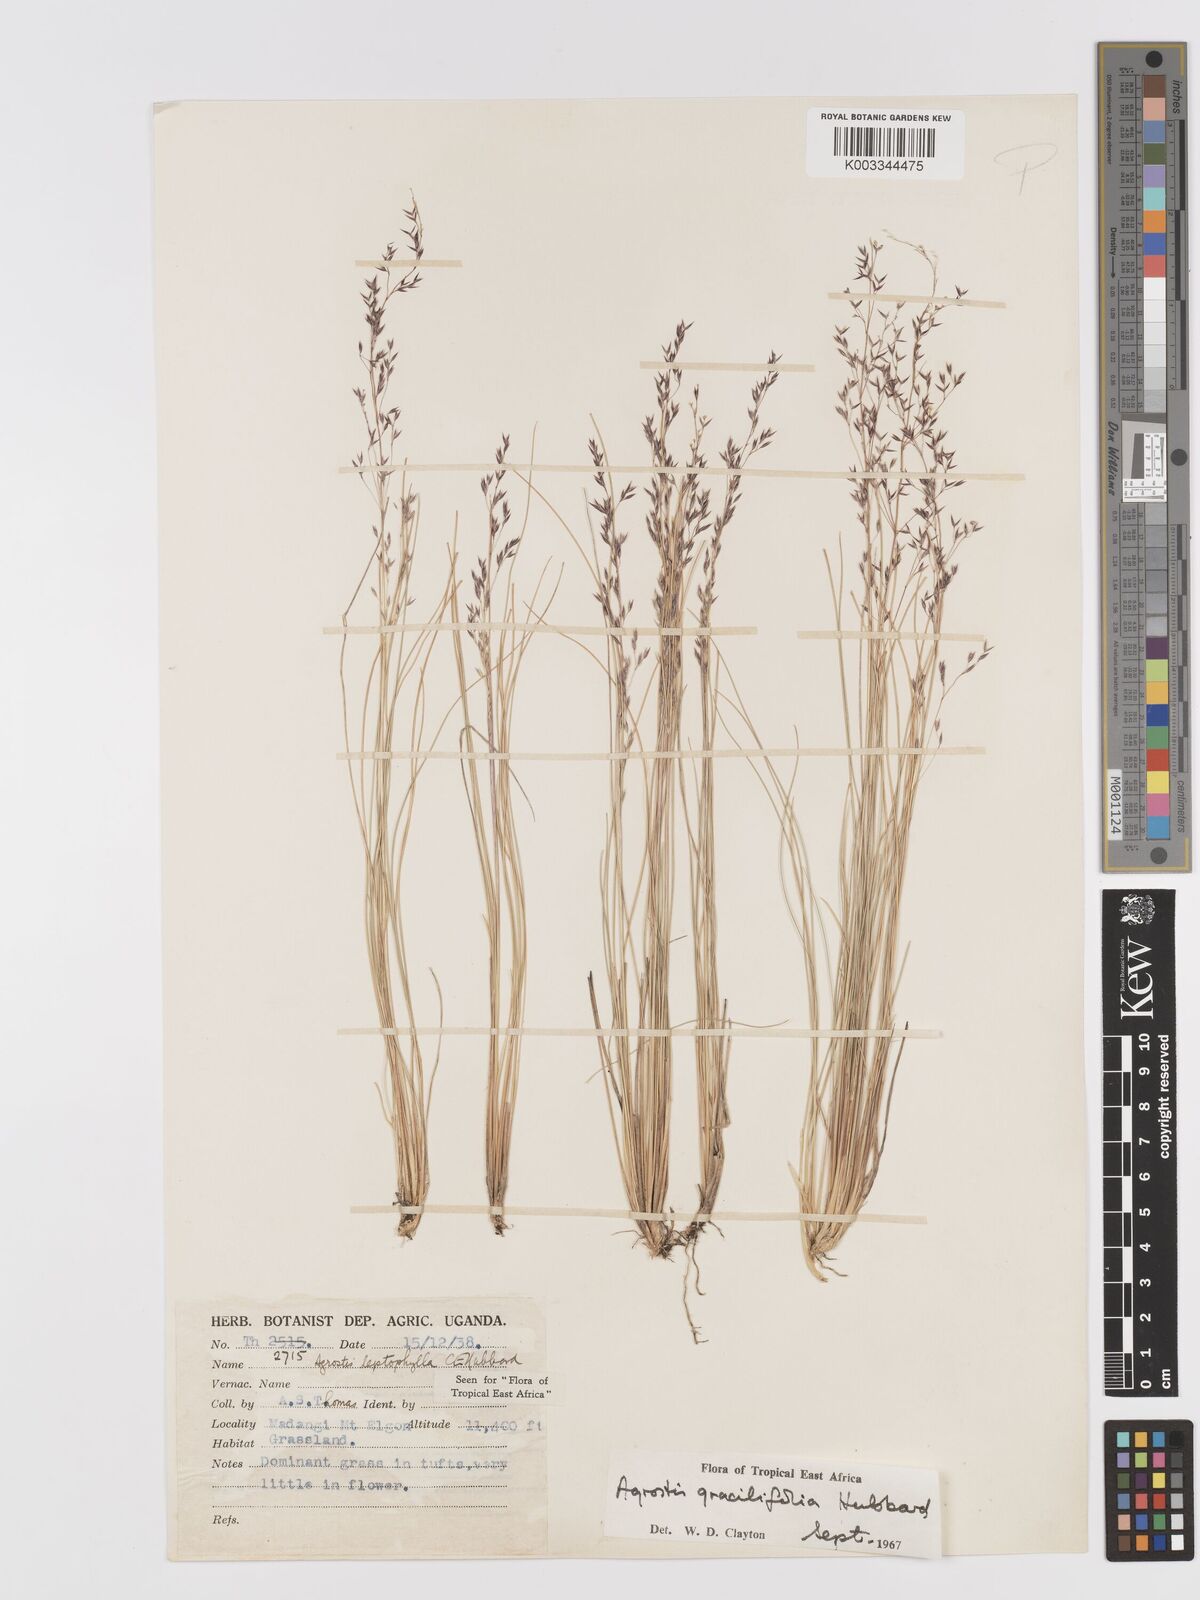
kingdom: Plantae
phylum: Tracheophyta
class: Liliopsida
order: Poales
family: Poaceae
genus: Agrostis
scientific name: Agrostis gracilifolia
